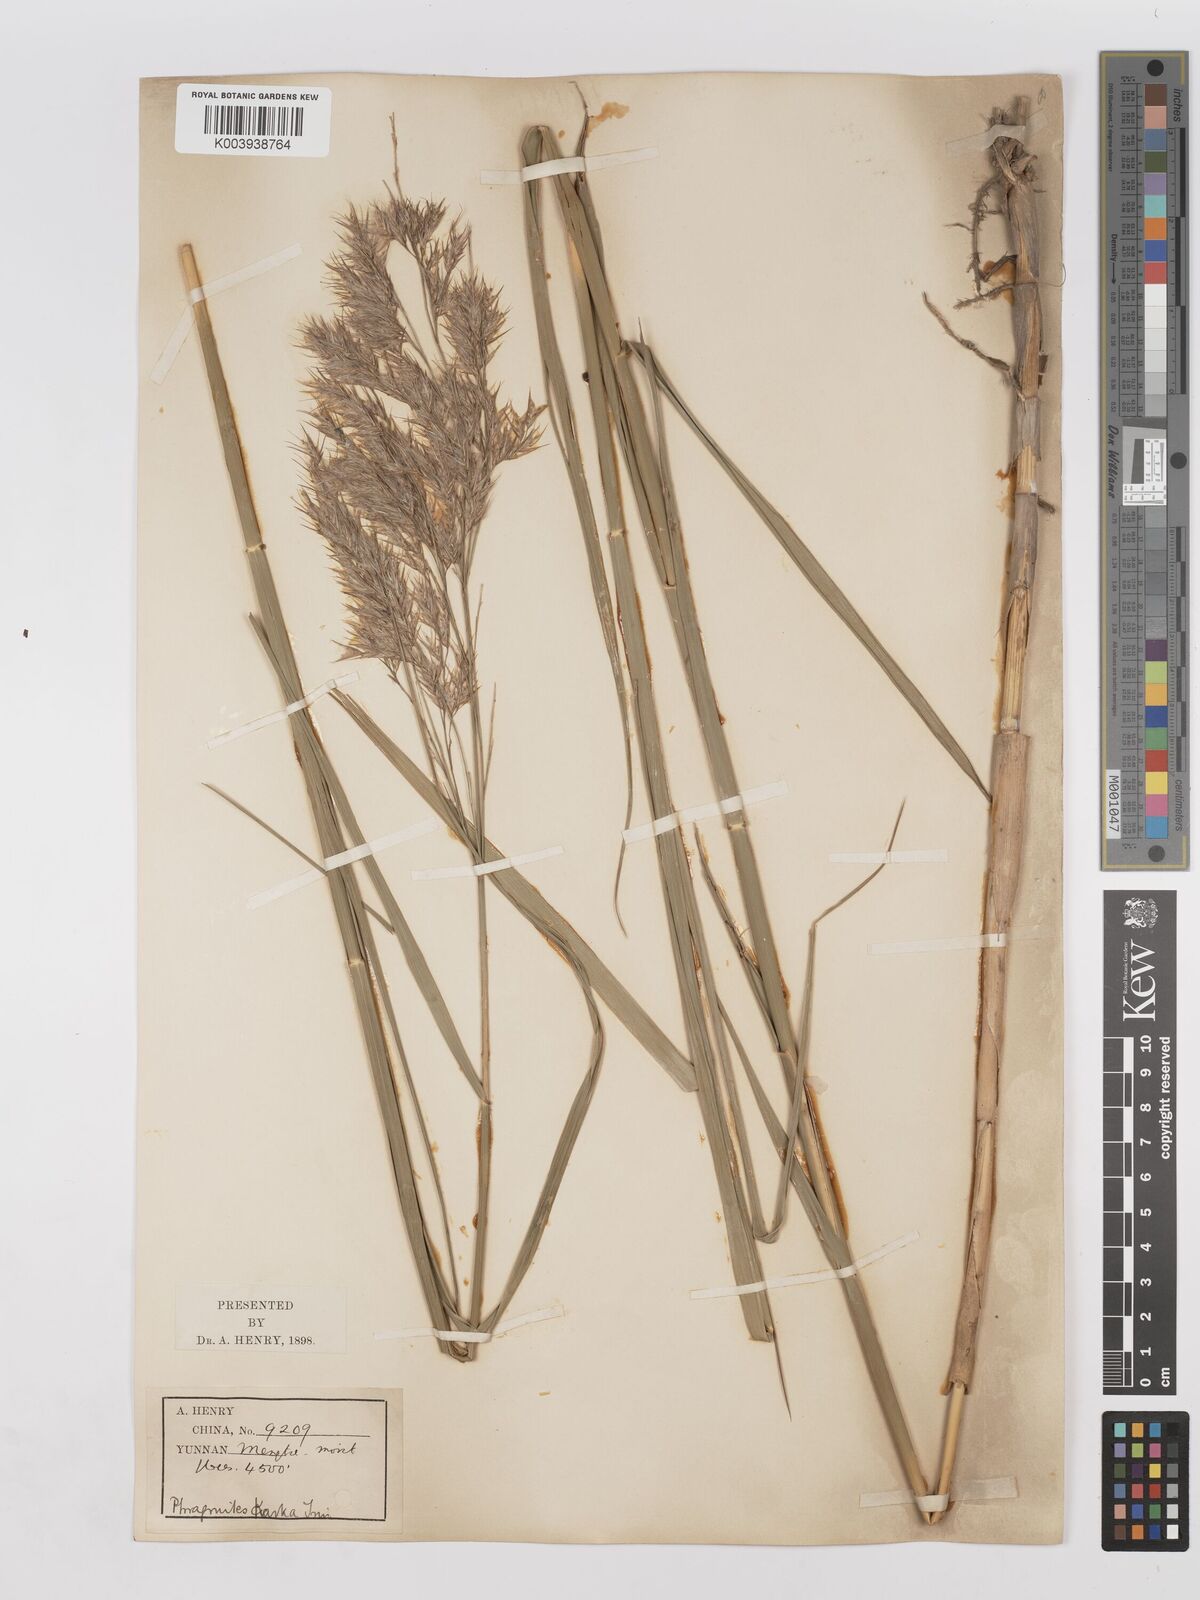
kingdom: Plantae
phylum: Tracheophyta
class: Liliopsida
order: Poales
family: Poaceae
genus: Phragmites
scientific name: Phragmites karka
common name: Tropical reed
